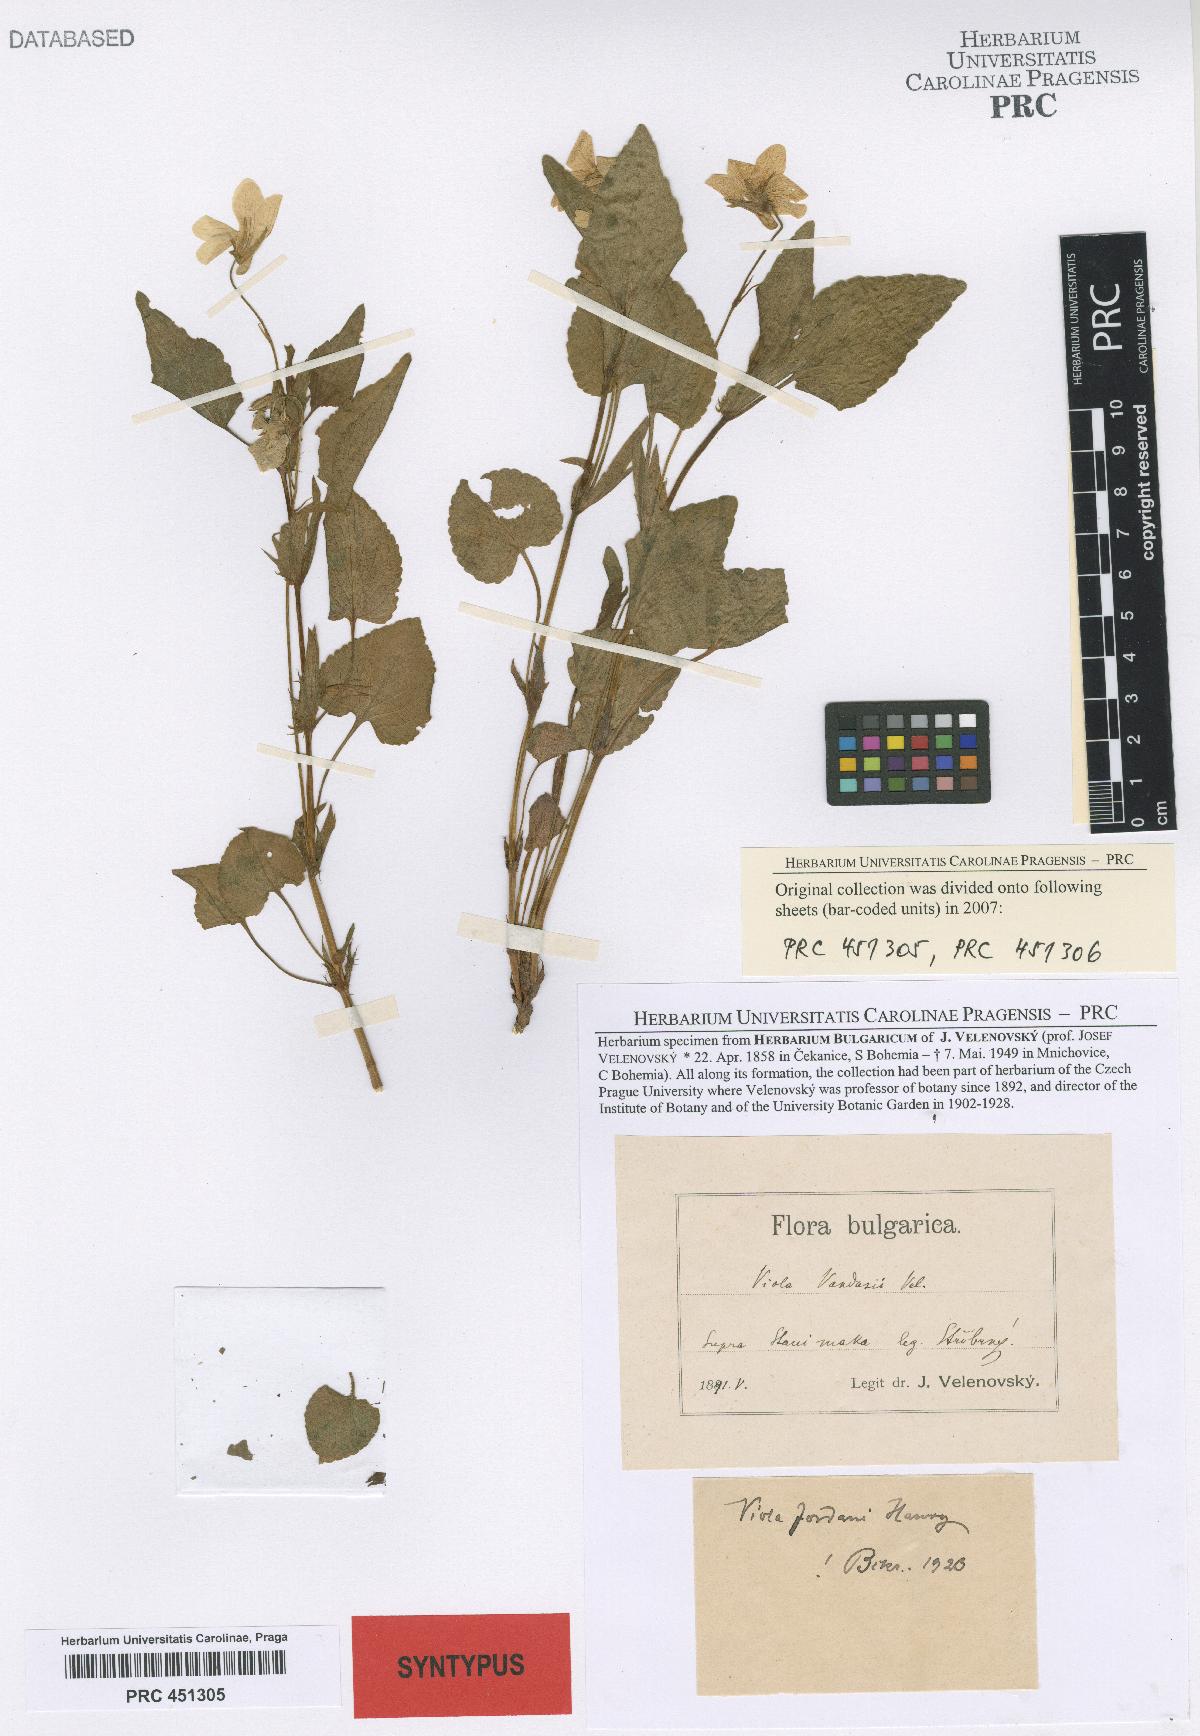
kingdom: Plantae
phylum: Tracheophyta
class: Magnoliopsida
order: Malpighiales
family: Violaceae
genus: Viola
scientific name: Viola jordanii
